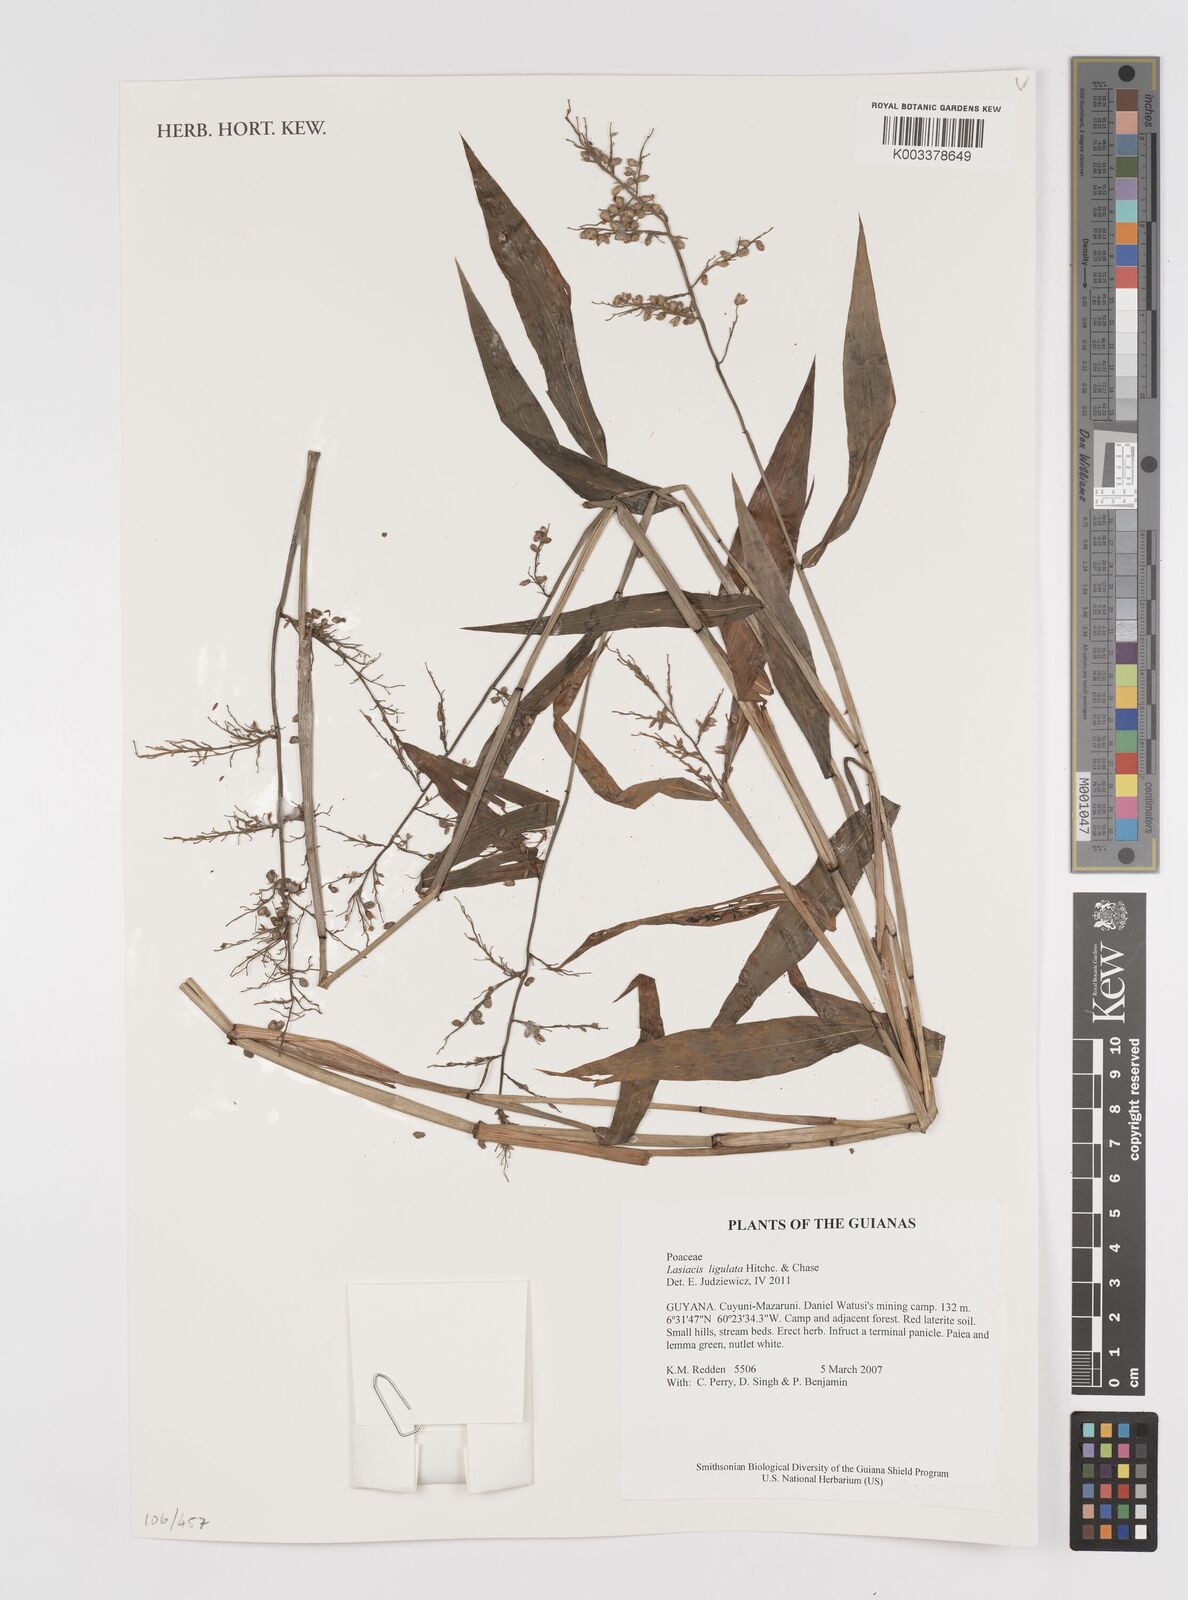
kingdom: Plantae
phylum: Tracheophyta
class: Liliopsida
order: Poales
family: Poaceae
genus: Lasiacis
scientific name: Lasiacis ligulata
